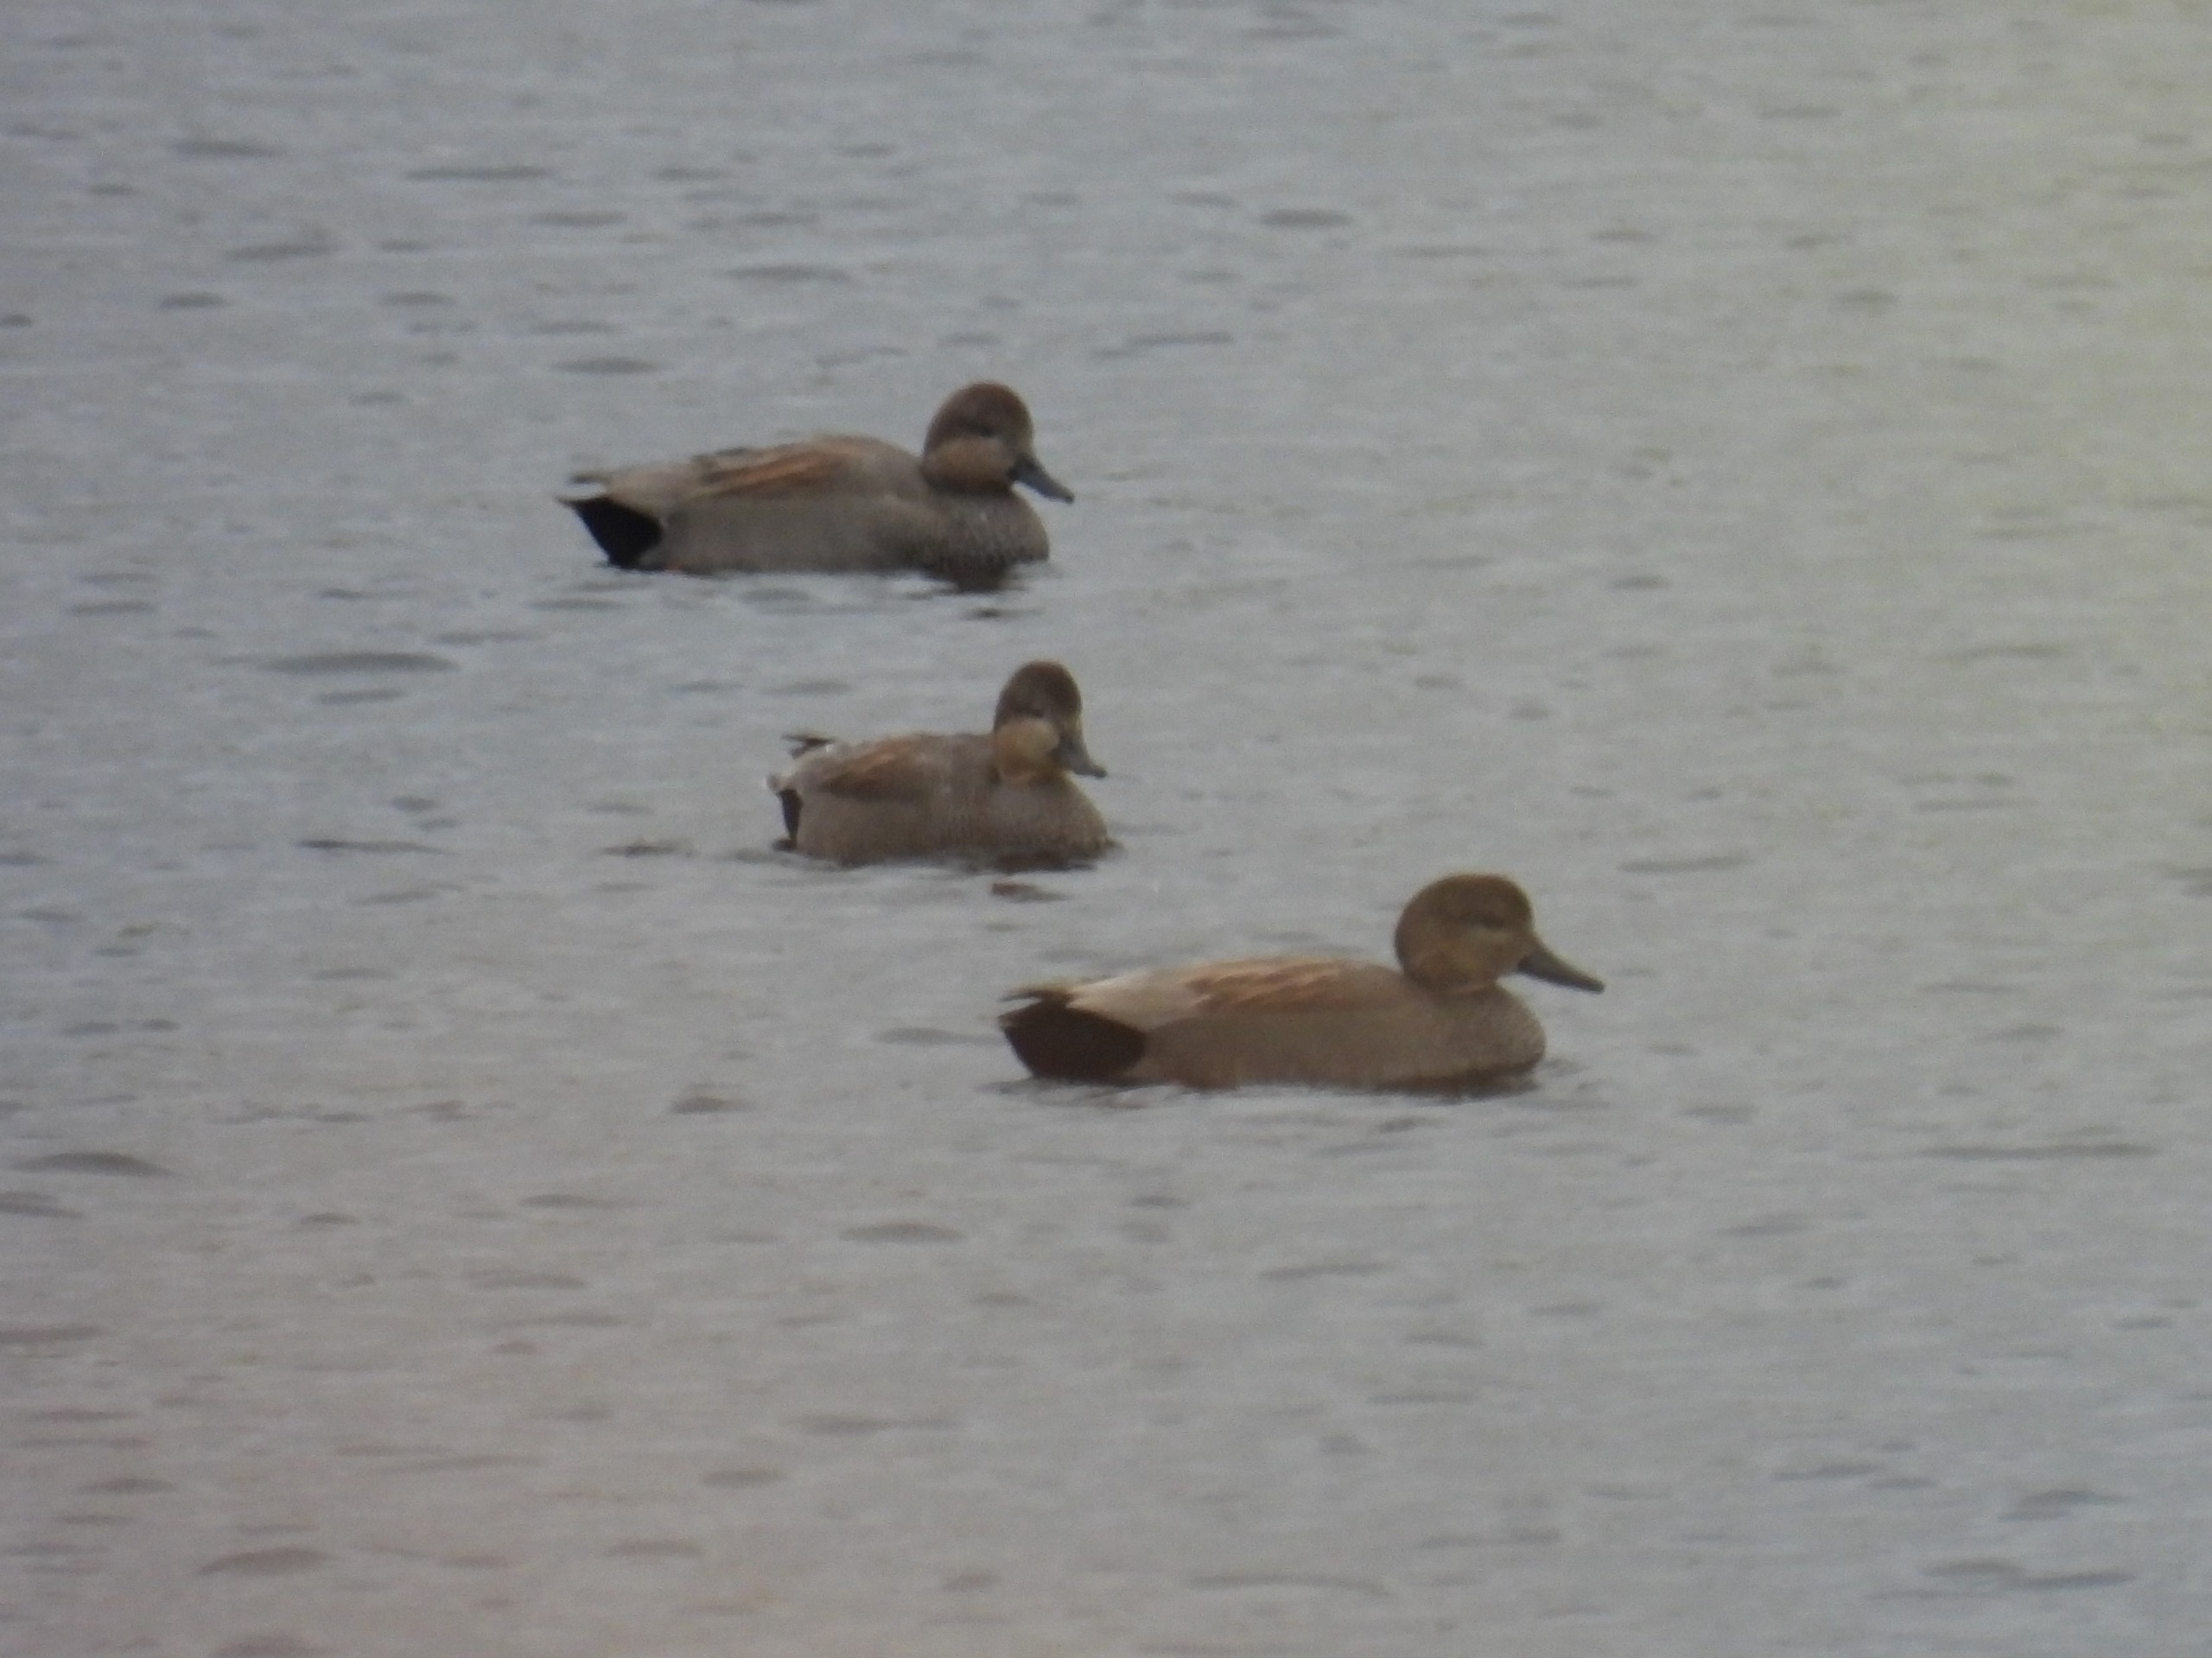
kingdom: Animalia
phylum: Chordata
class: Aves
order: Anseriformes
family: Anatidae
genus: Mareca
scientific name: Mareca strepera
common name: Knarand
